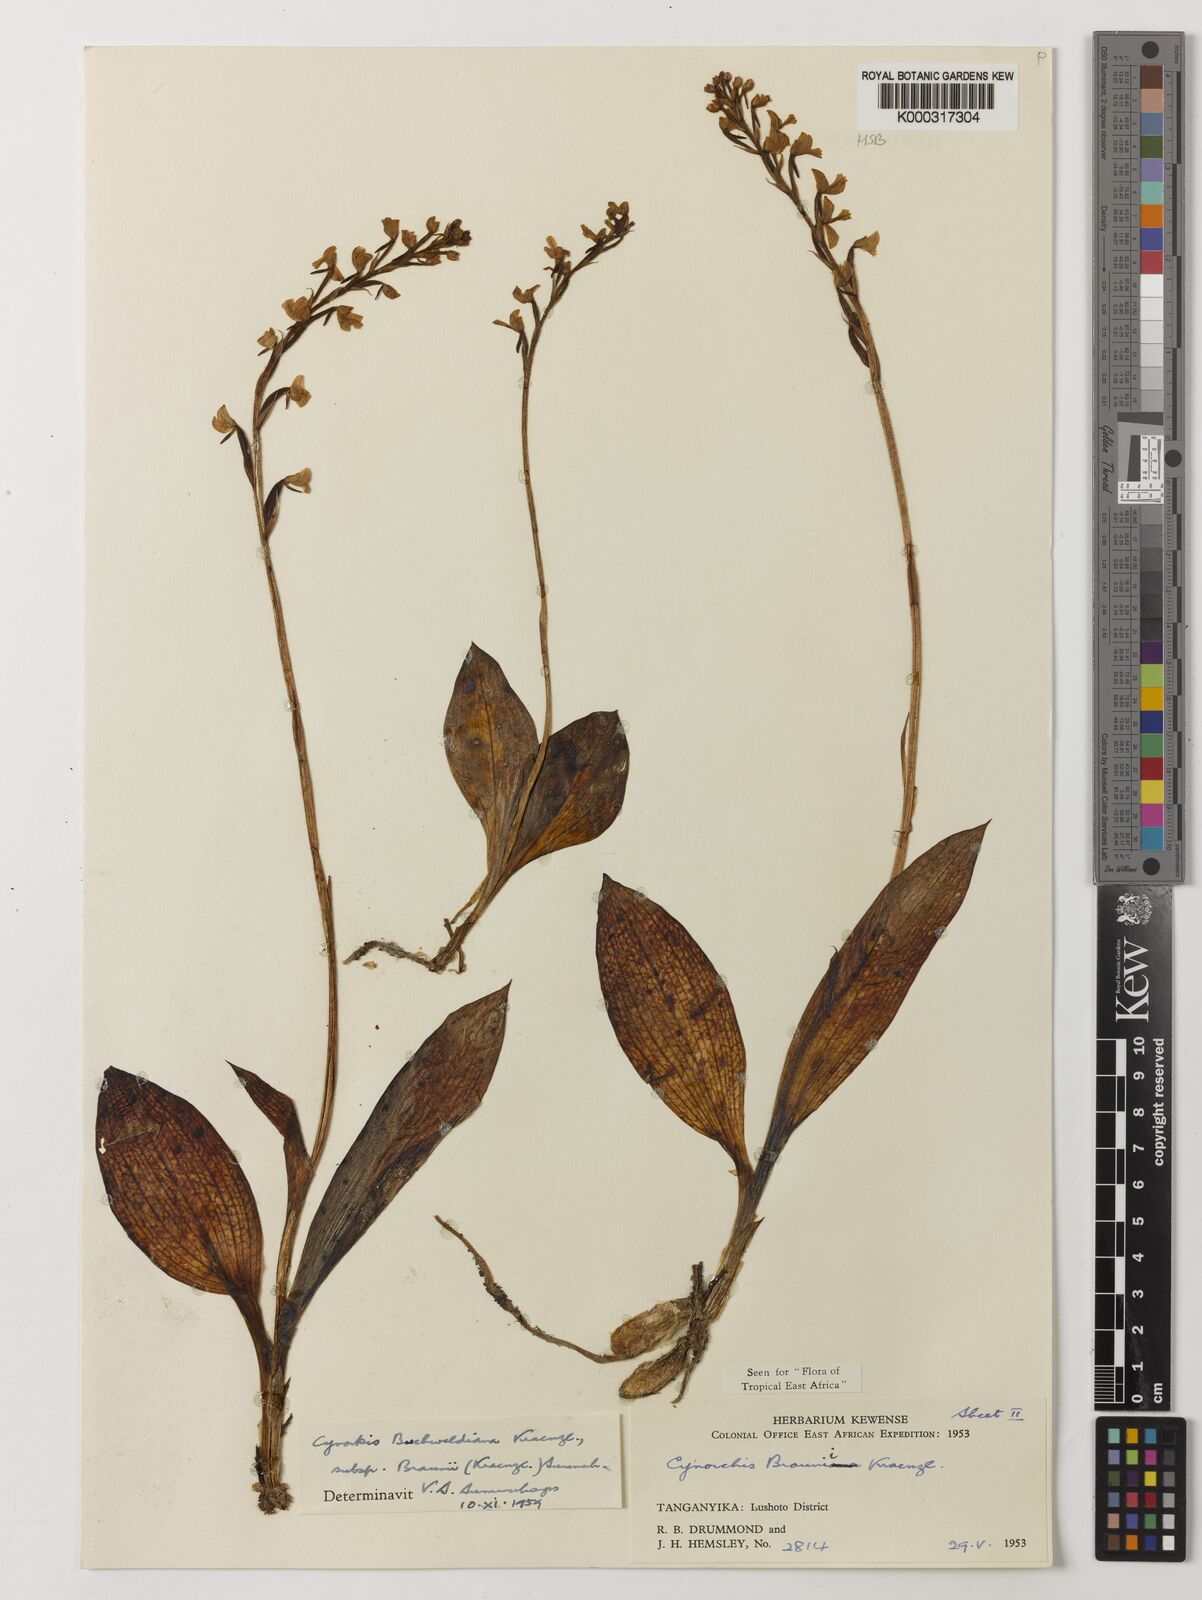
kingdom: Plantae
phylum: Tracheophyta
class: Liliopsida
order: Asparagales
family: Orchidaceae
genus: Cynorkis
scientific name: Cynorkis buchwaldiana
